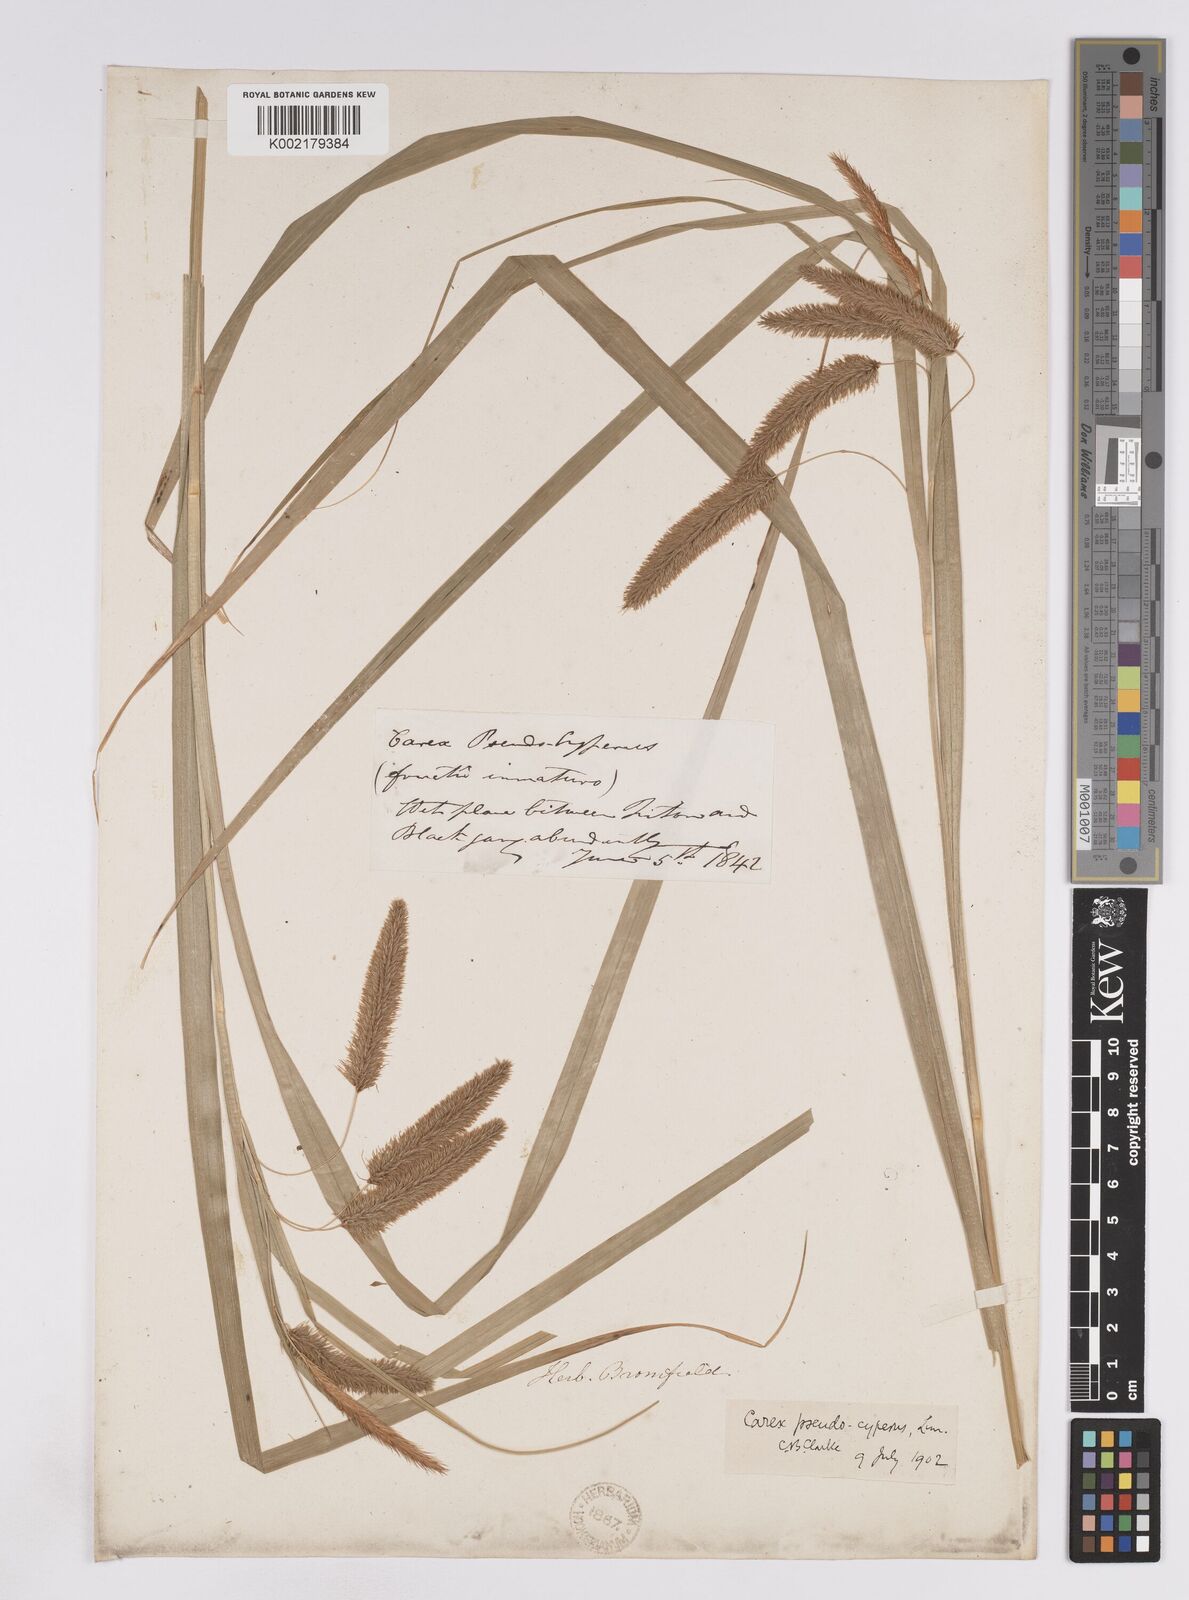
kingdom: Plantae
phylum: Tracheophyta
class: Liliopsida
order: Poales
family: Cyperaceae
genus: Carex
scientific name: Carex pseudocyperus
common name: Cyperus sedge
